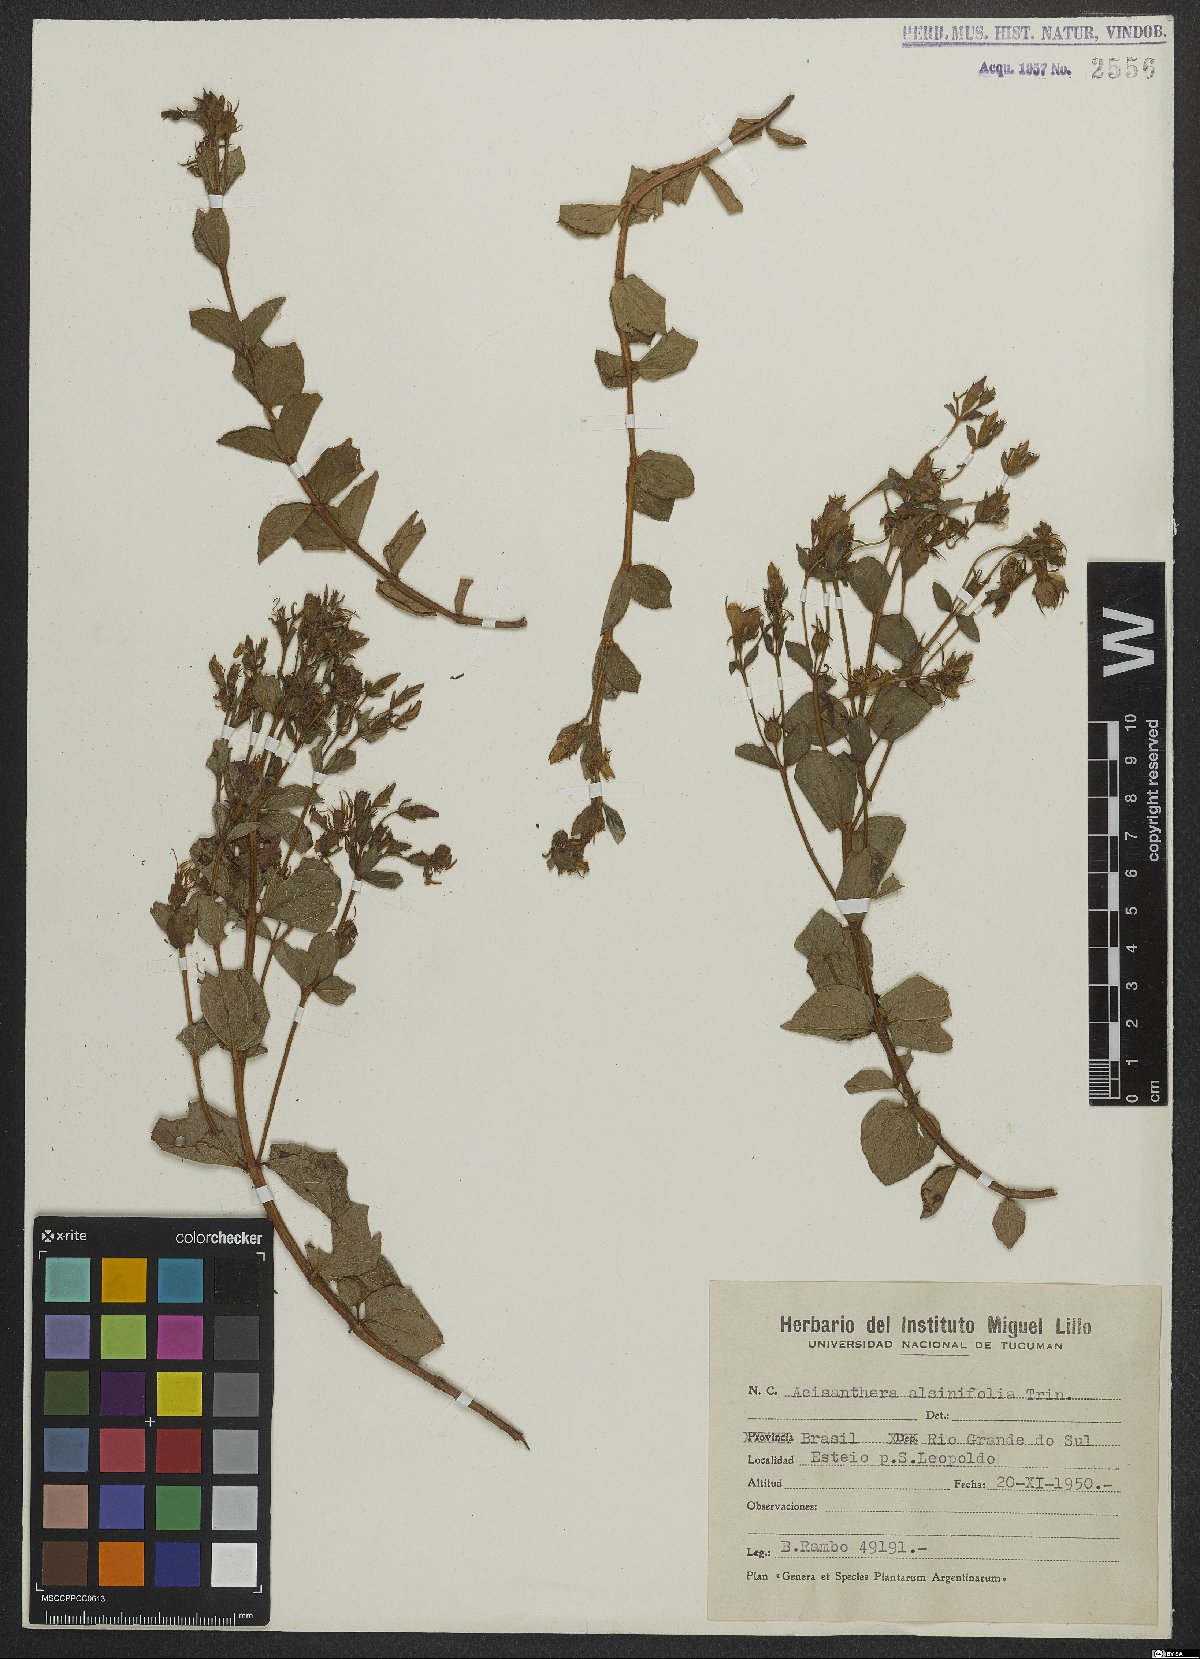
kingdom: Plantae
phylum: Tracheophyta
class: Magnoliopsida
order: Myrtales
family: Melastomataceae
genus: Acisanthera
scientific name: Acisanthera alsinefolia
